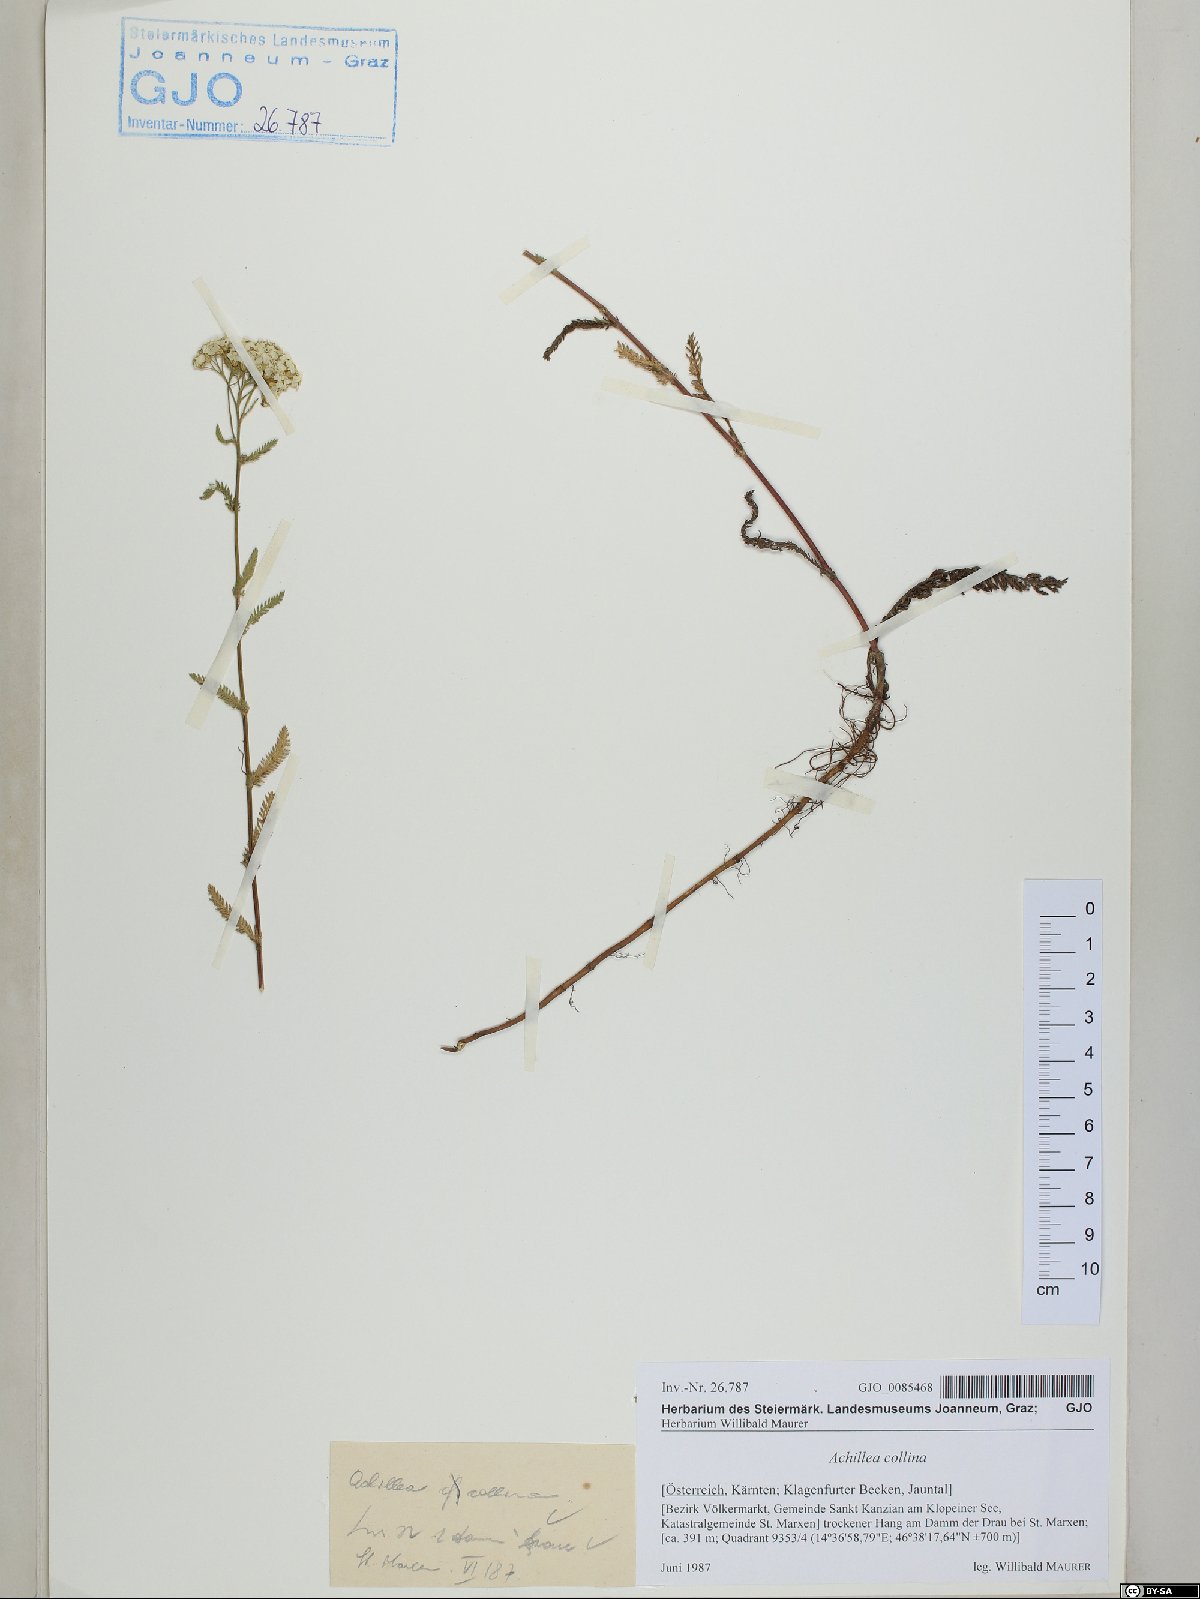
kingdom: Plantae
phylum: Tracheophyta
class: Magnoliopsida
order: Asterales
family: Asteraceae
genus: Achillea
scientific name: Achillea collina
